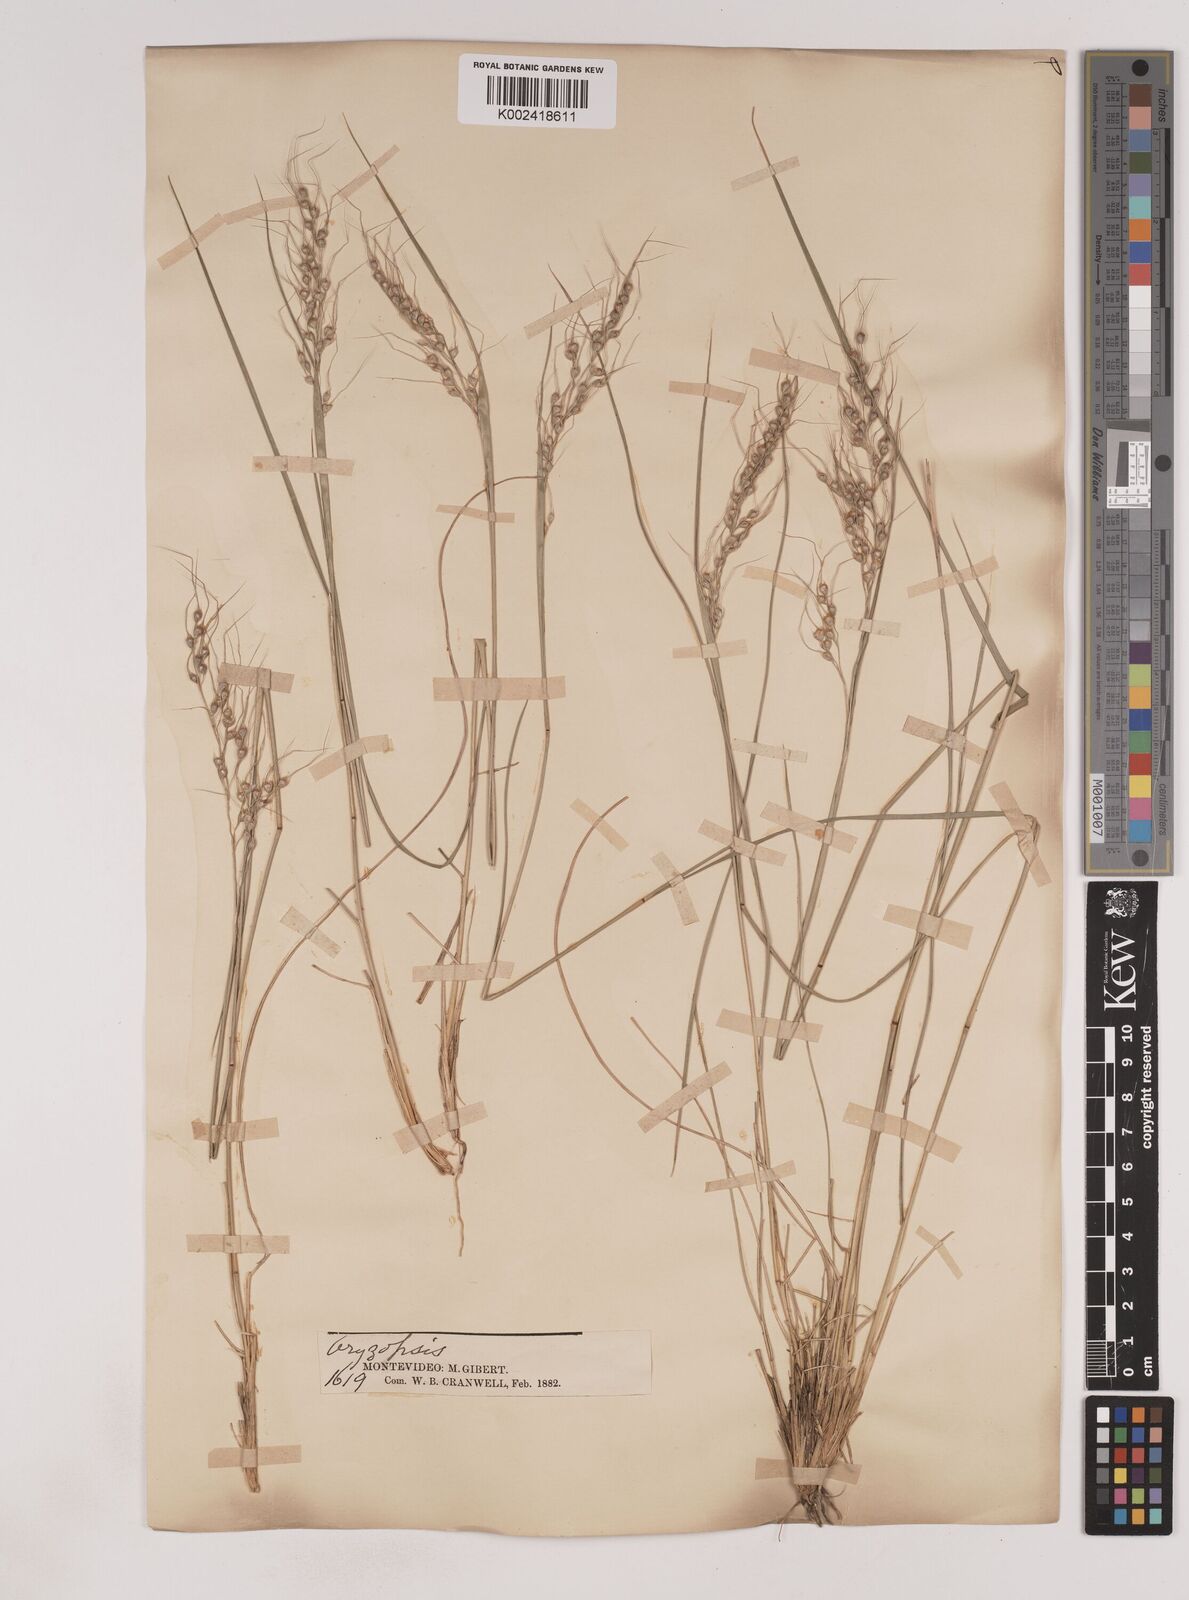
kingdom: Plantae
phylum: Tracheophyta
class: Liliopsida
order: Poales
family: Poaceae
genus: Piptochaetium
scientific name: Piptochaetium
